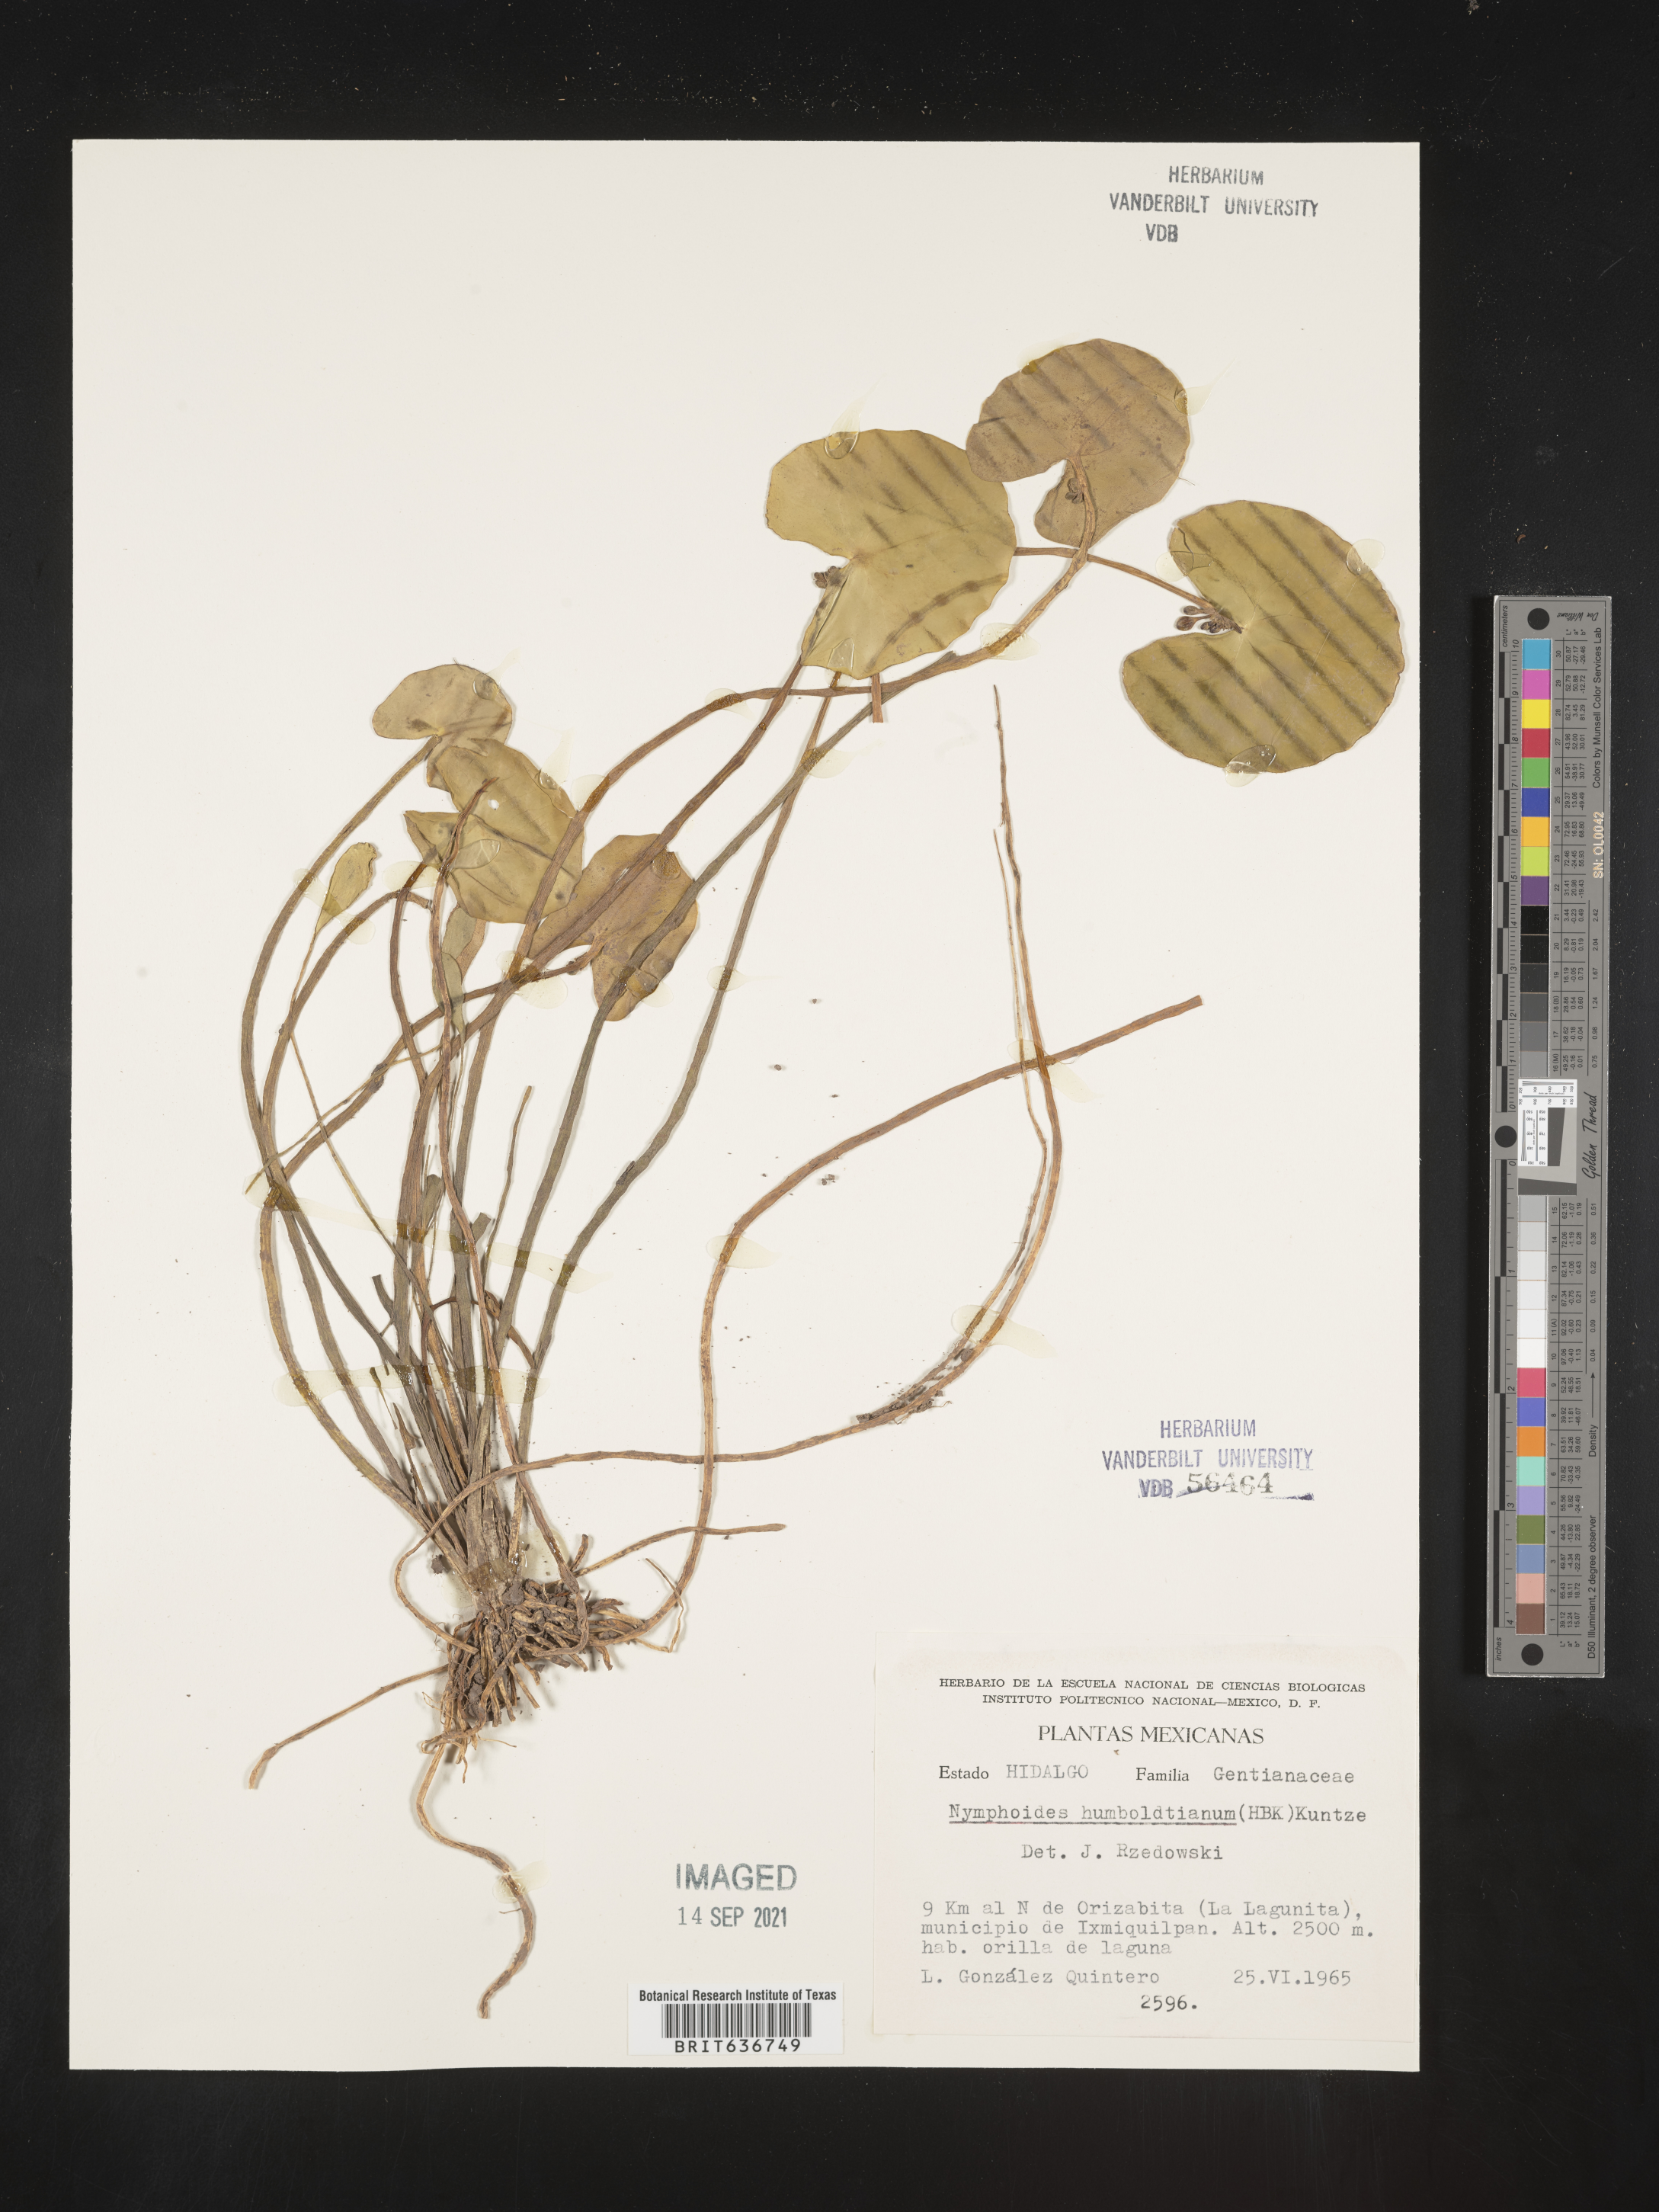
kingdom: Plantae
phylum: Tracheophyta
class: Magnoliopsida
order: Asterales
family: Menyanthaceae
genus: Nymphoides
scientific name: Nymphoides
